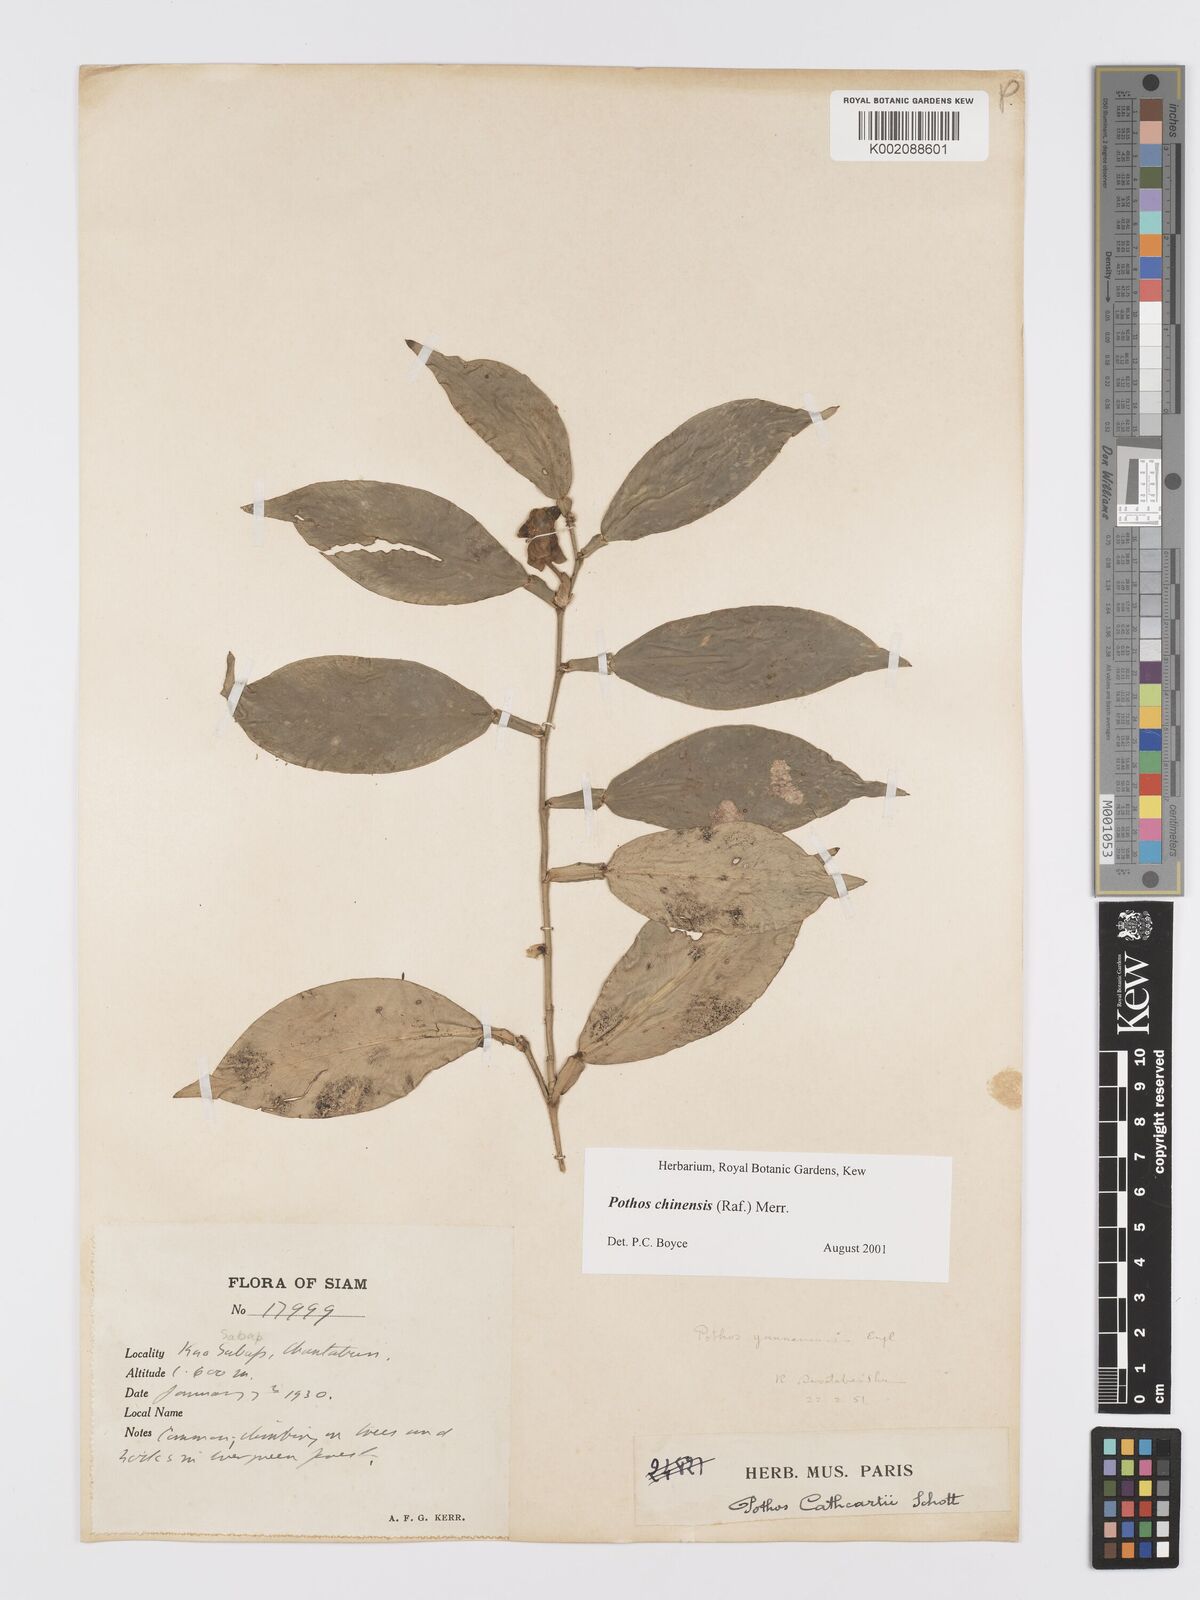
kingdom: Plantae
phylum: Tracheophyta
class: Liliopsida
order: Alismatales
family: Araceae
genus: Pothos
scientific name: Pothos chinensis
